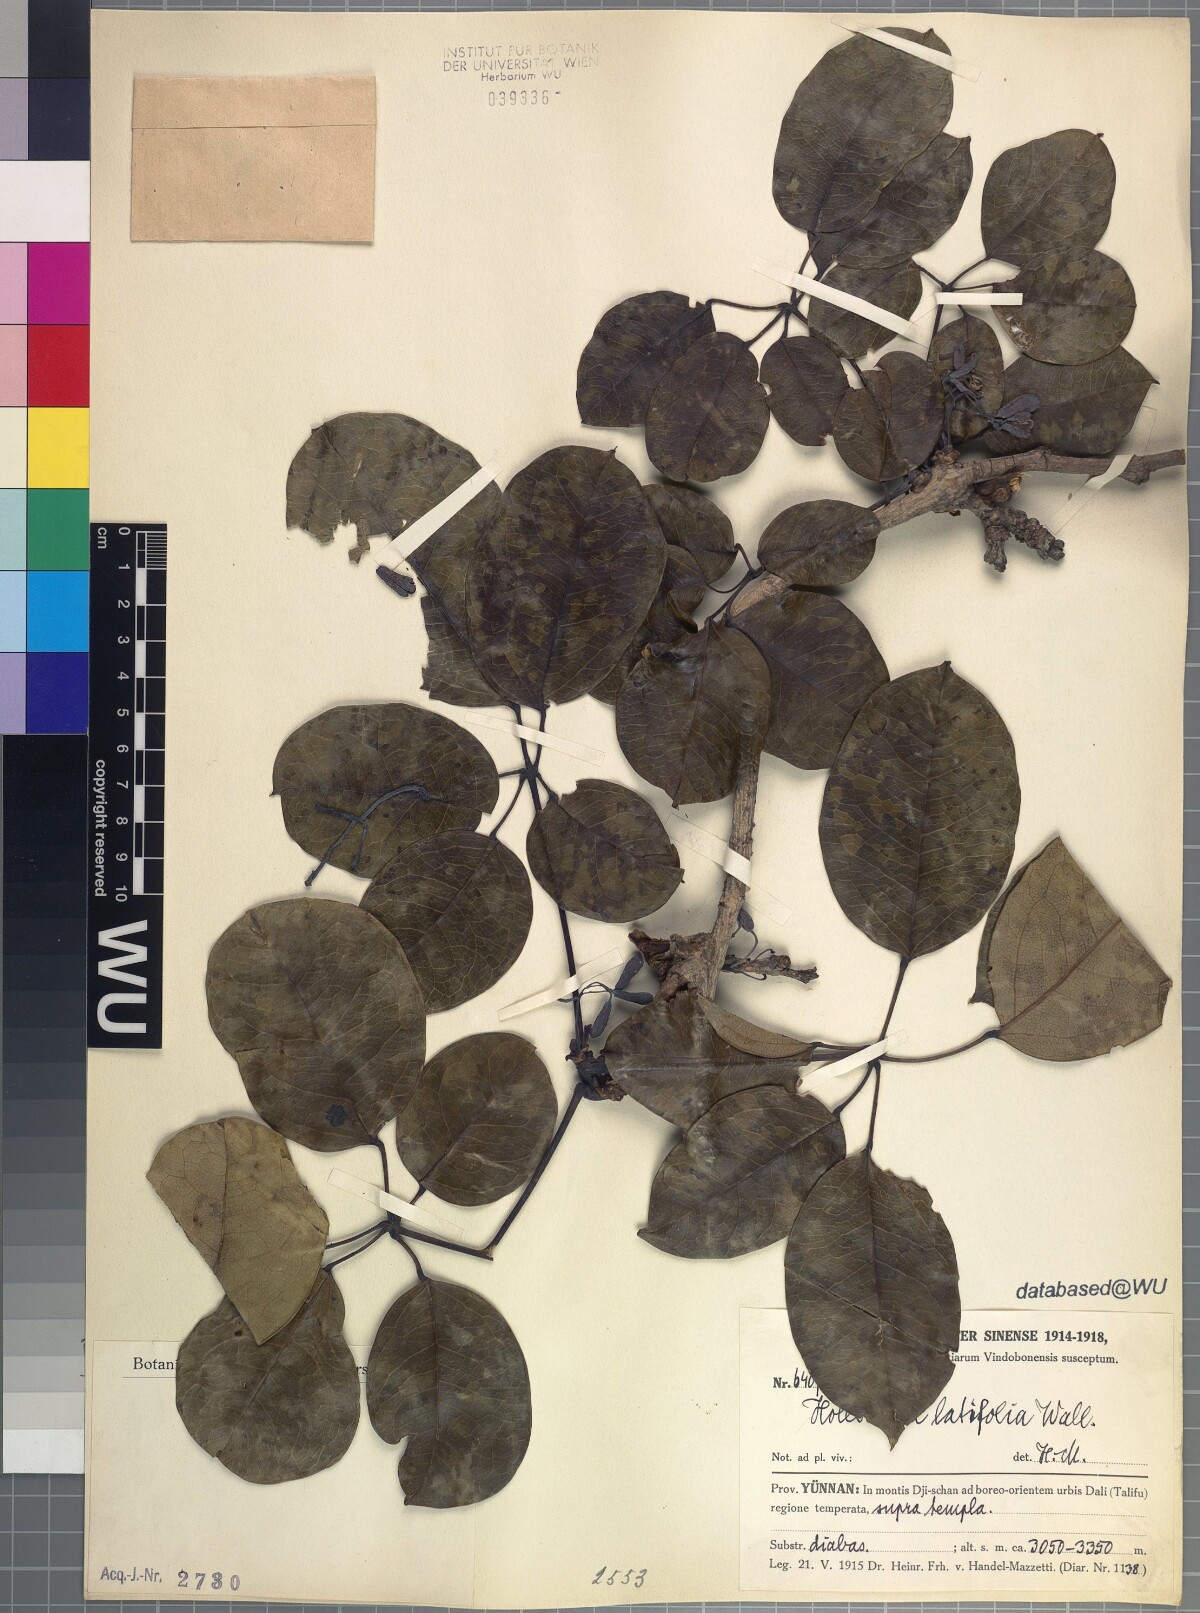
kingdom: Plantae
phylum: Tracheophyta
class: Magnoliopsida
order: Ranunculales
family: Lardizabalaceae
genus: Stauntonia
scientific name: Stauntonia latifolia
